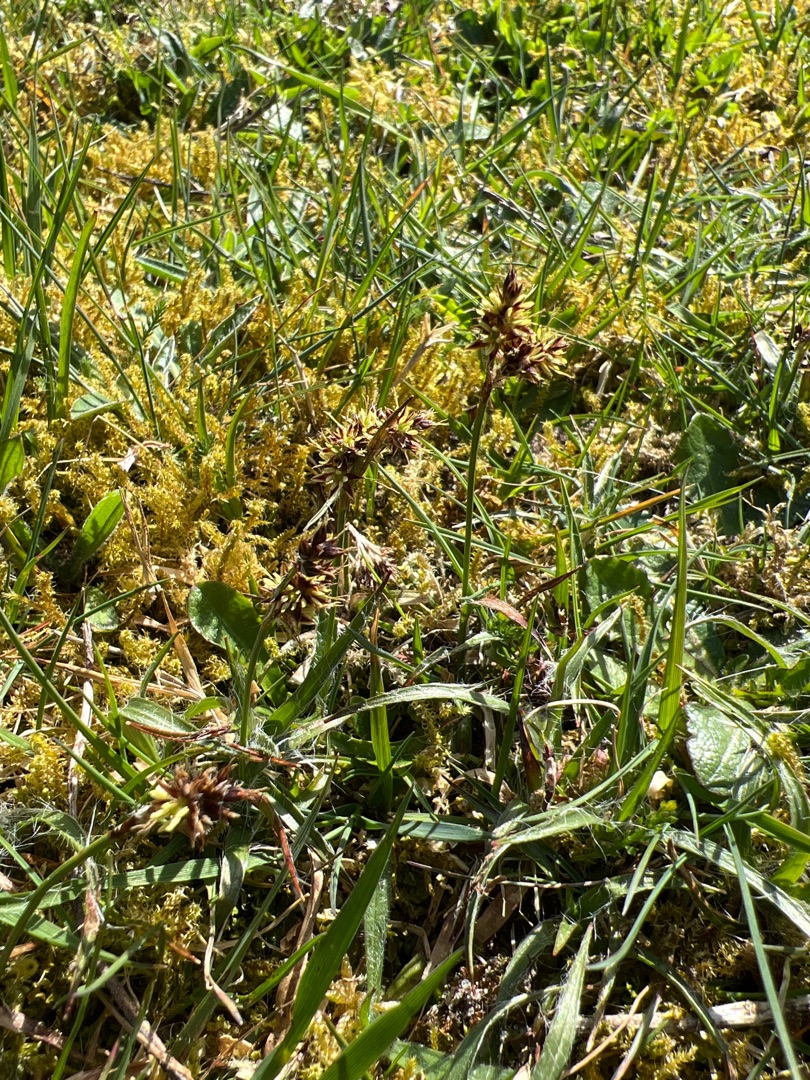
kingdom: Plantae
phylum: Tracheophyta
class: Liliopsida
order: Poales
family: Juncaceae
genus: Luzula
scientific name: Luzula campestris
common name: Mark-frytle
